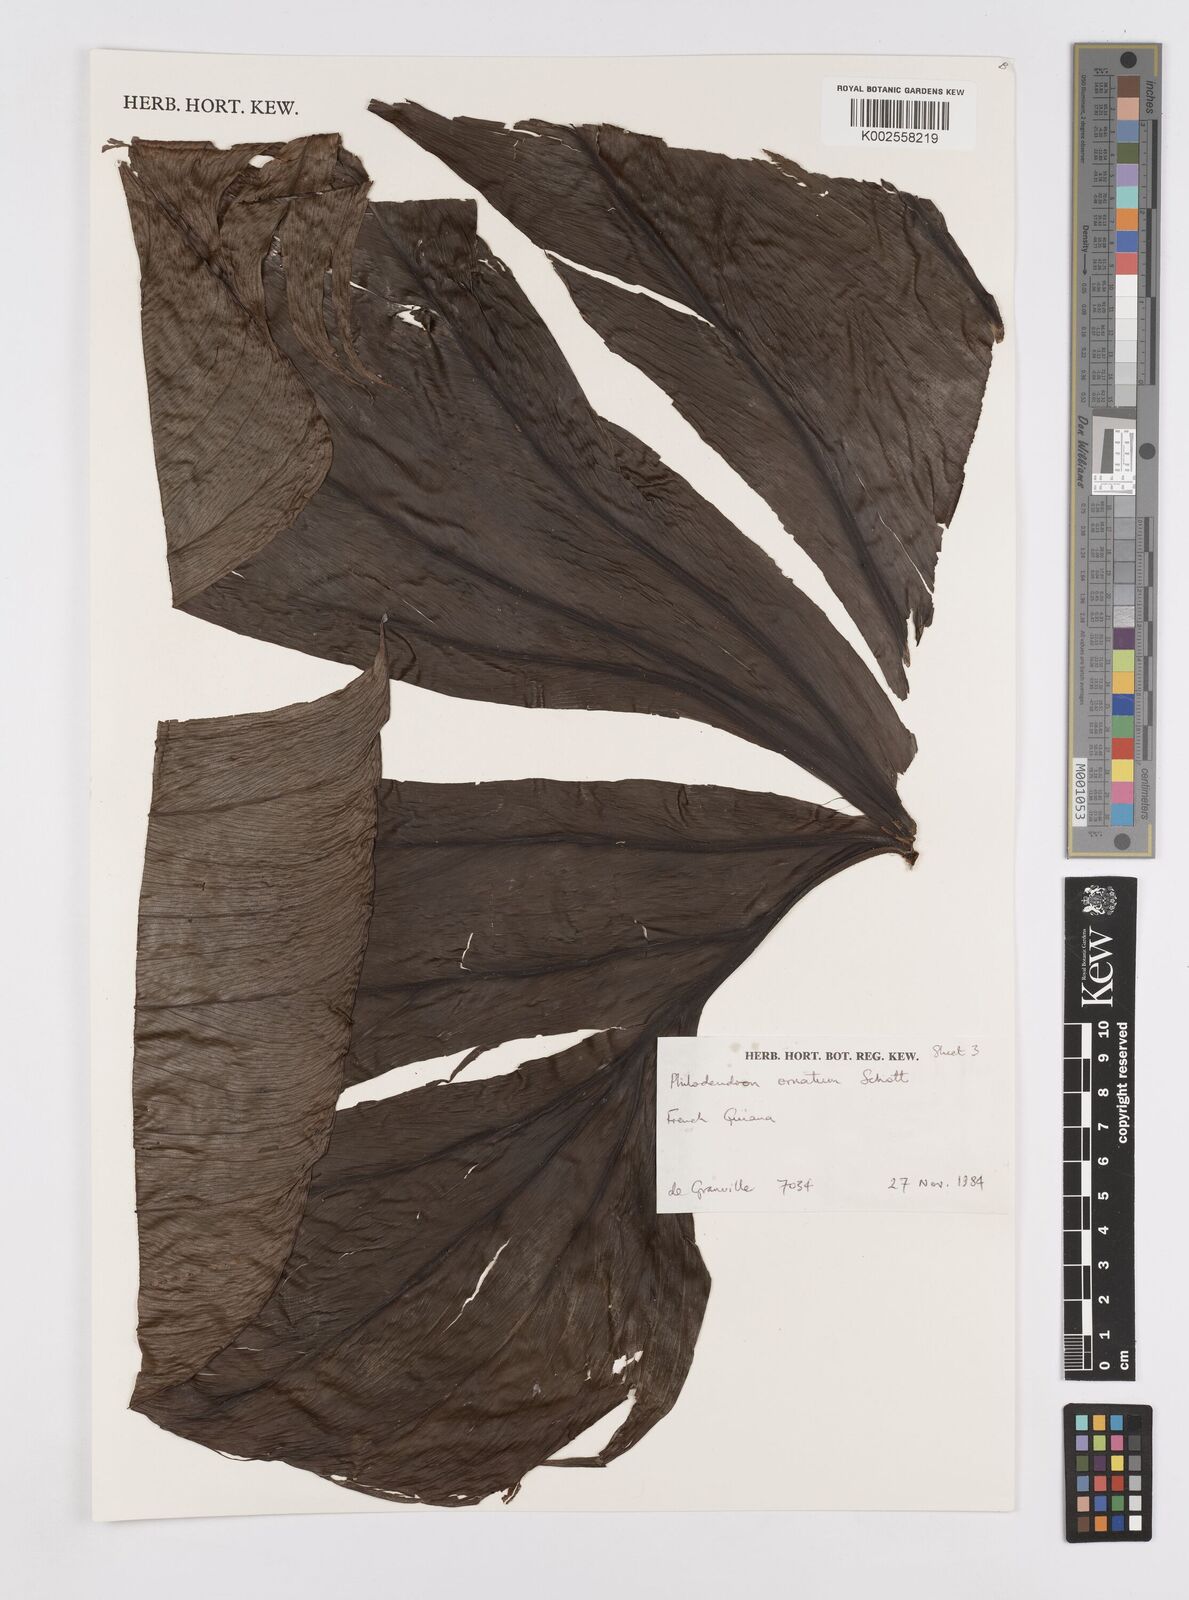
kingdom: Plantae
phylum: Tracheophyta
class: Liliopsida
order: Alismatales
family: Araceae
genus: Philodendron
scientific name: Philodendron ornatum
